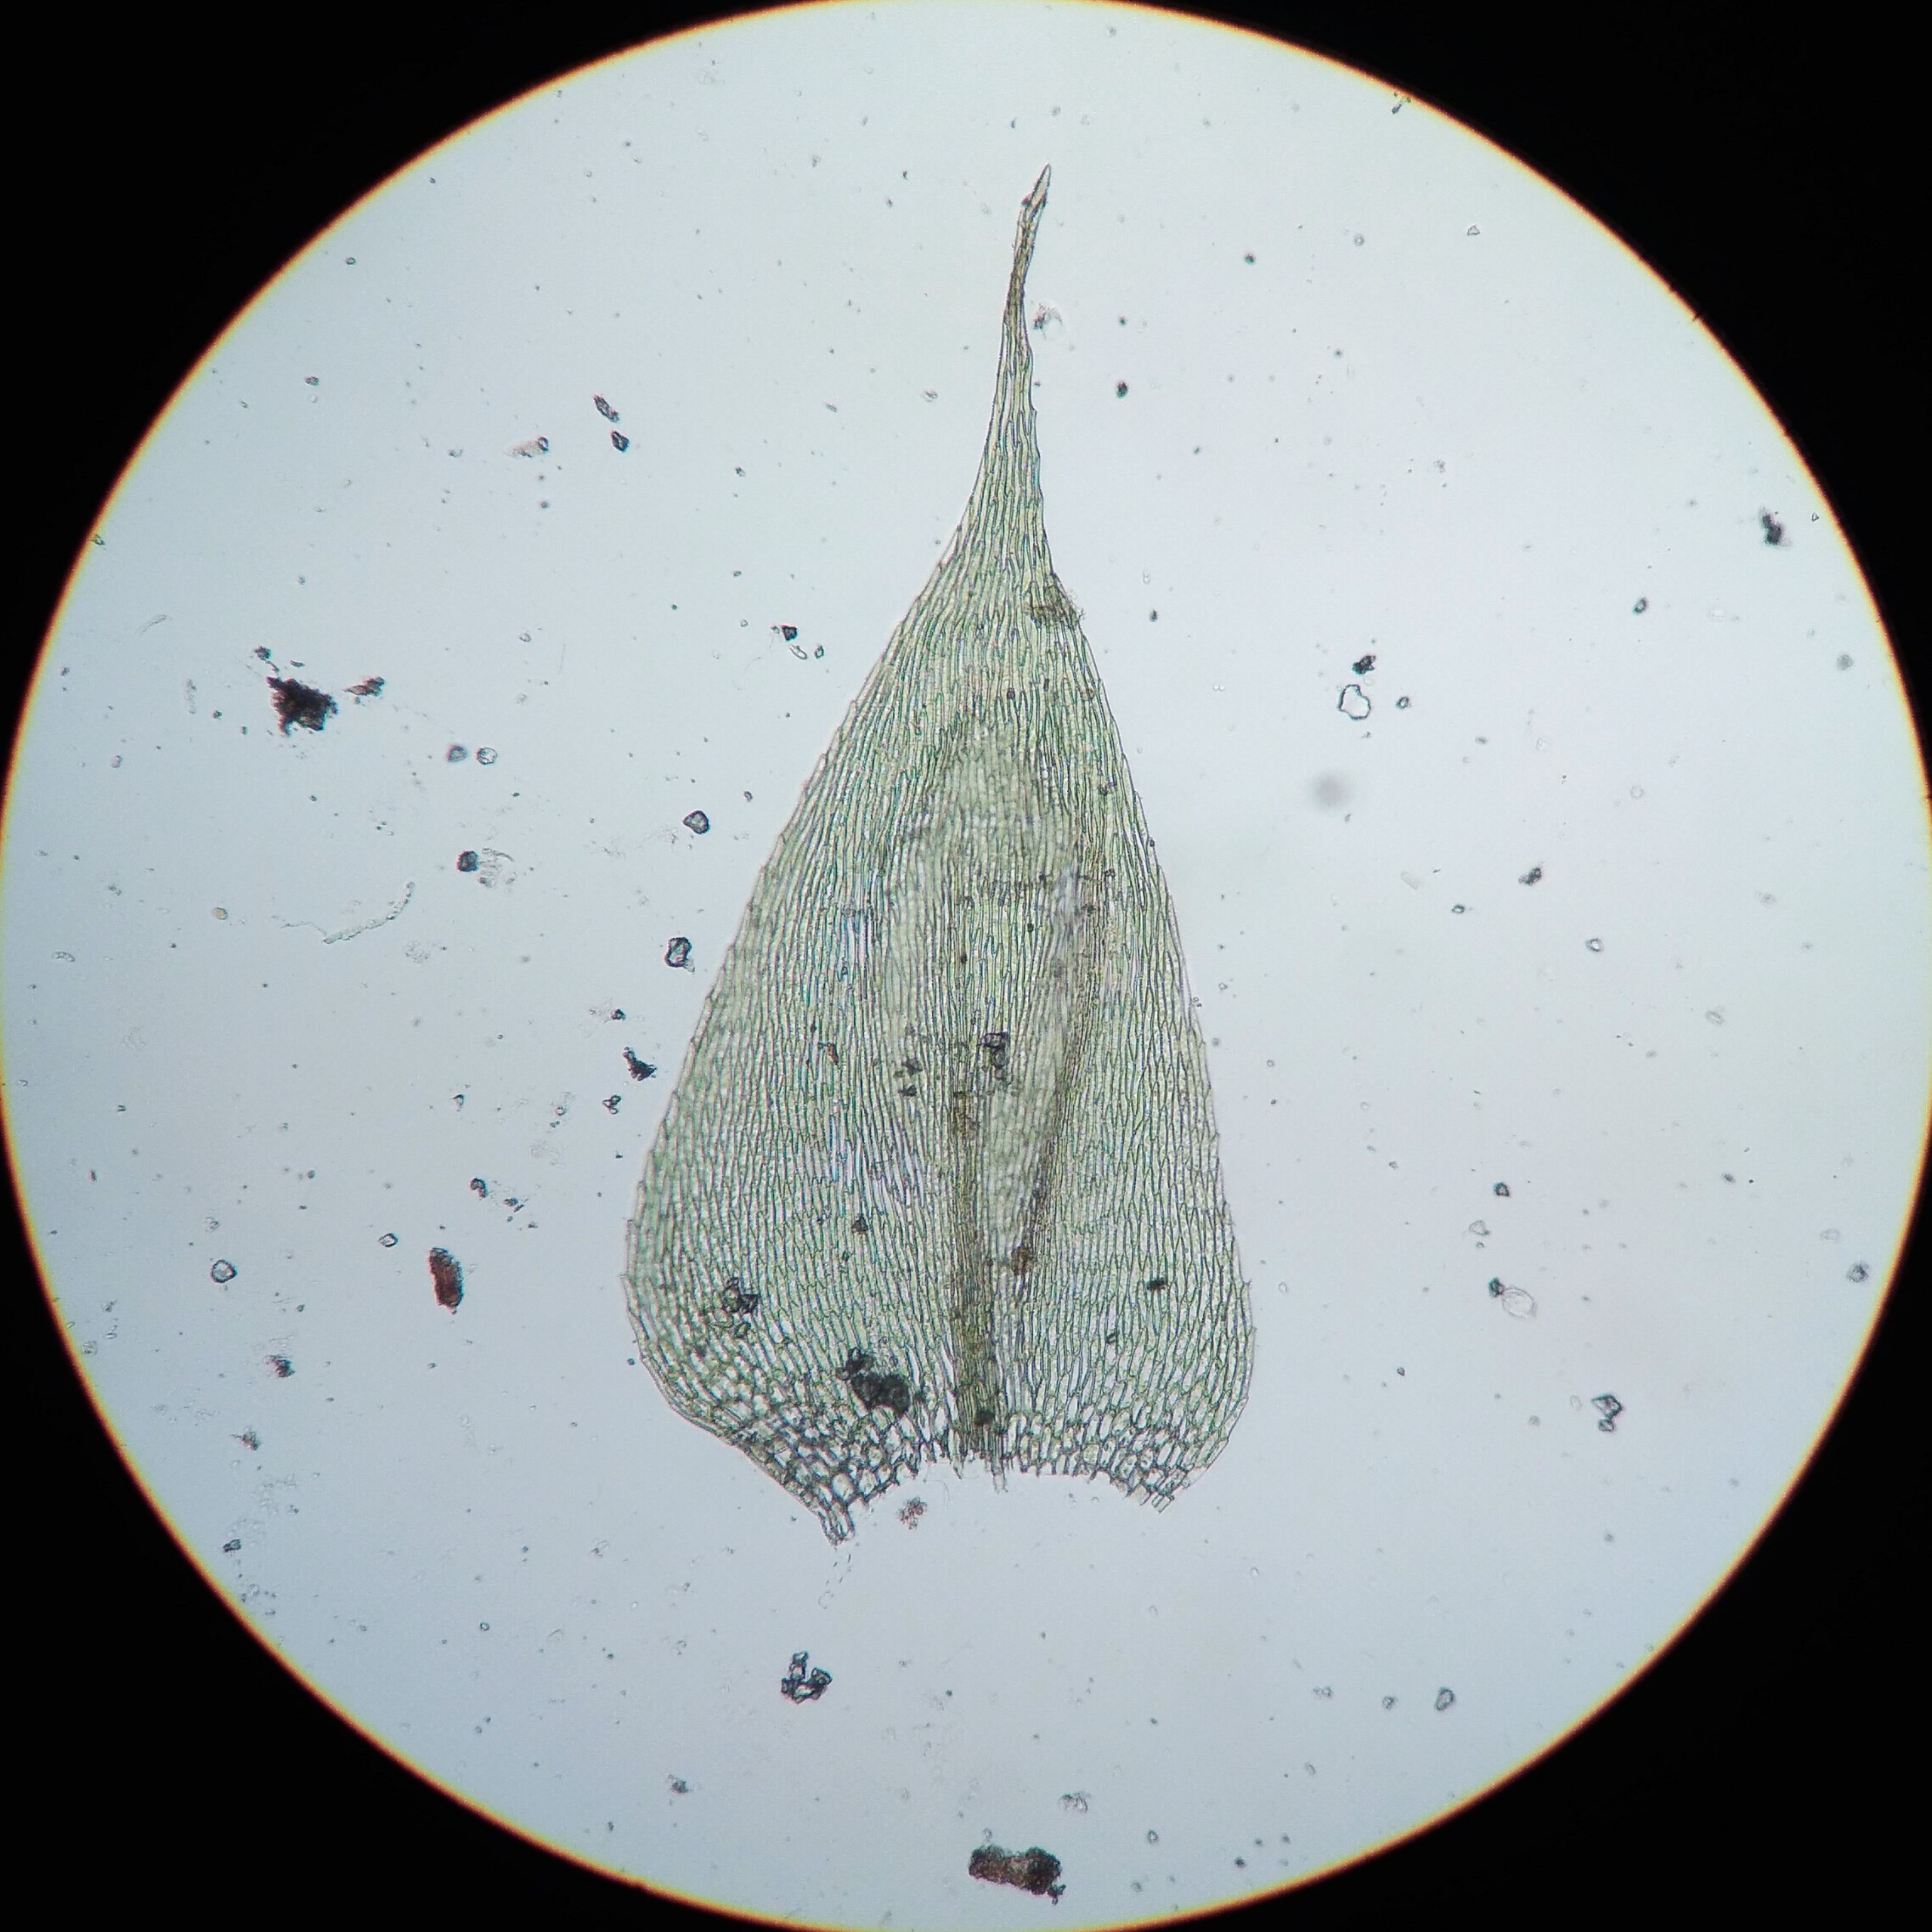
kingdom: Plantae
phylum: Bryophyta
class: Bryopsida
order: Hypnales
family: Brachytheciaceae
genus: Rhynchostegium
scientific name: Rhynchostegium megapolitanum
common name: Bredbladet langnæb
